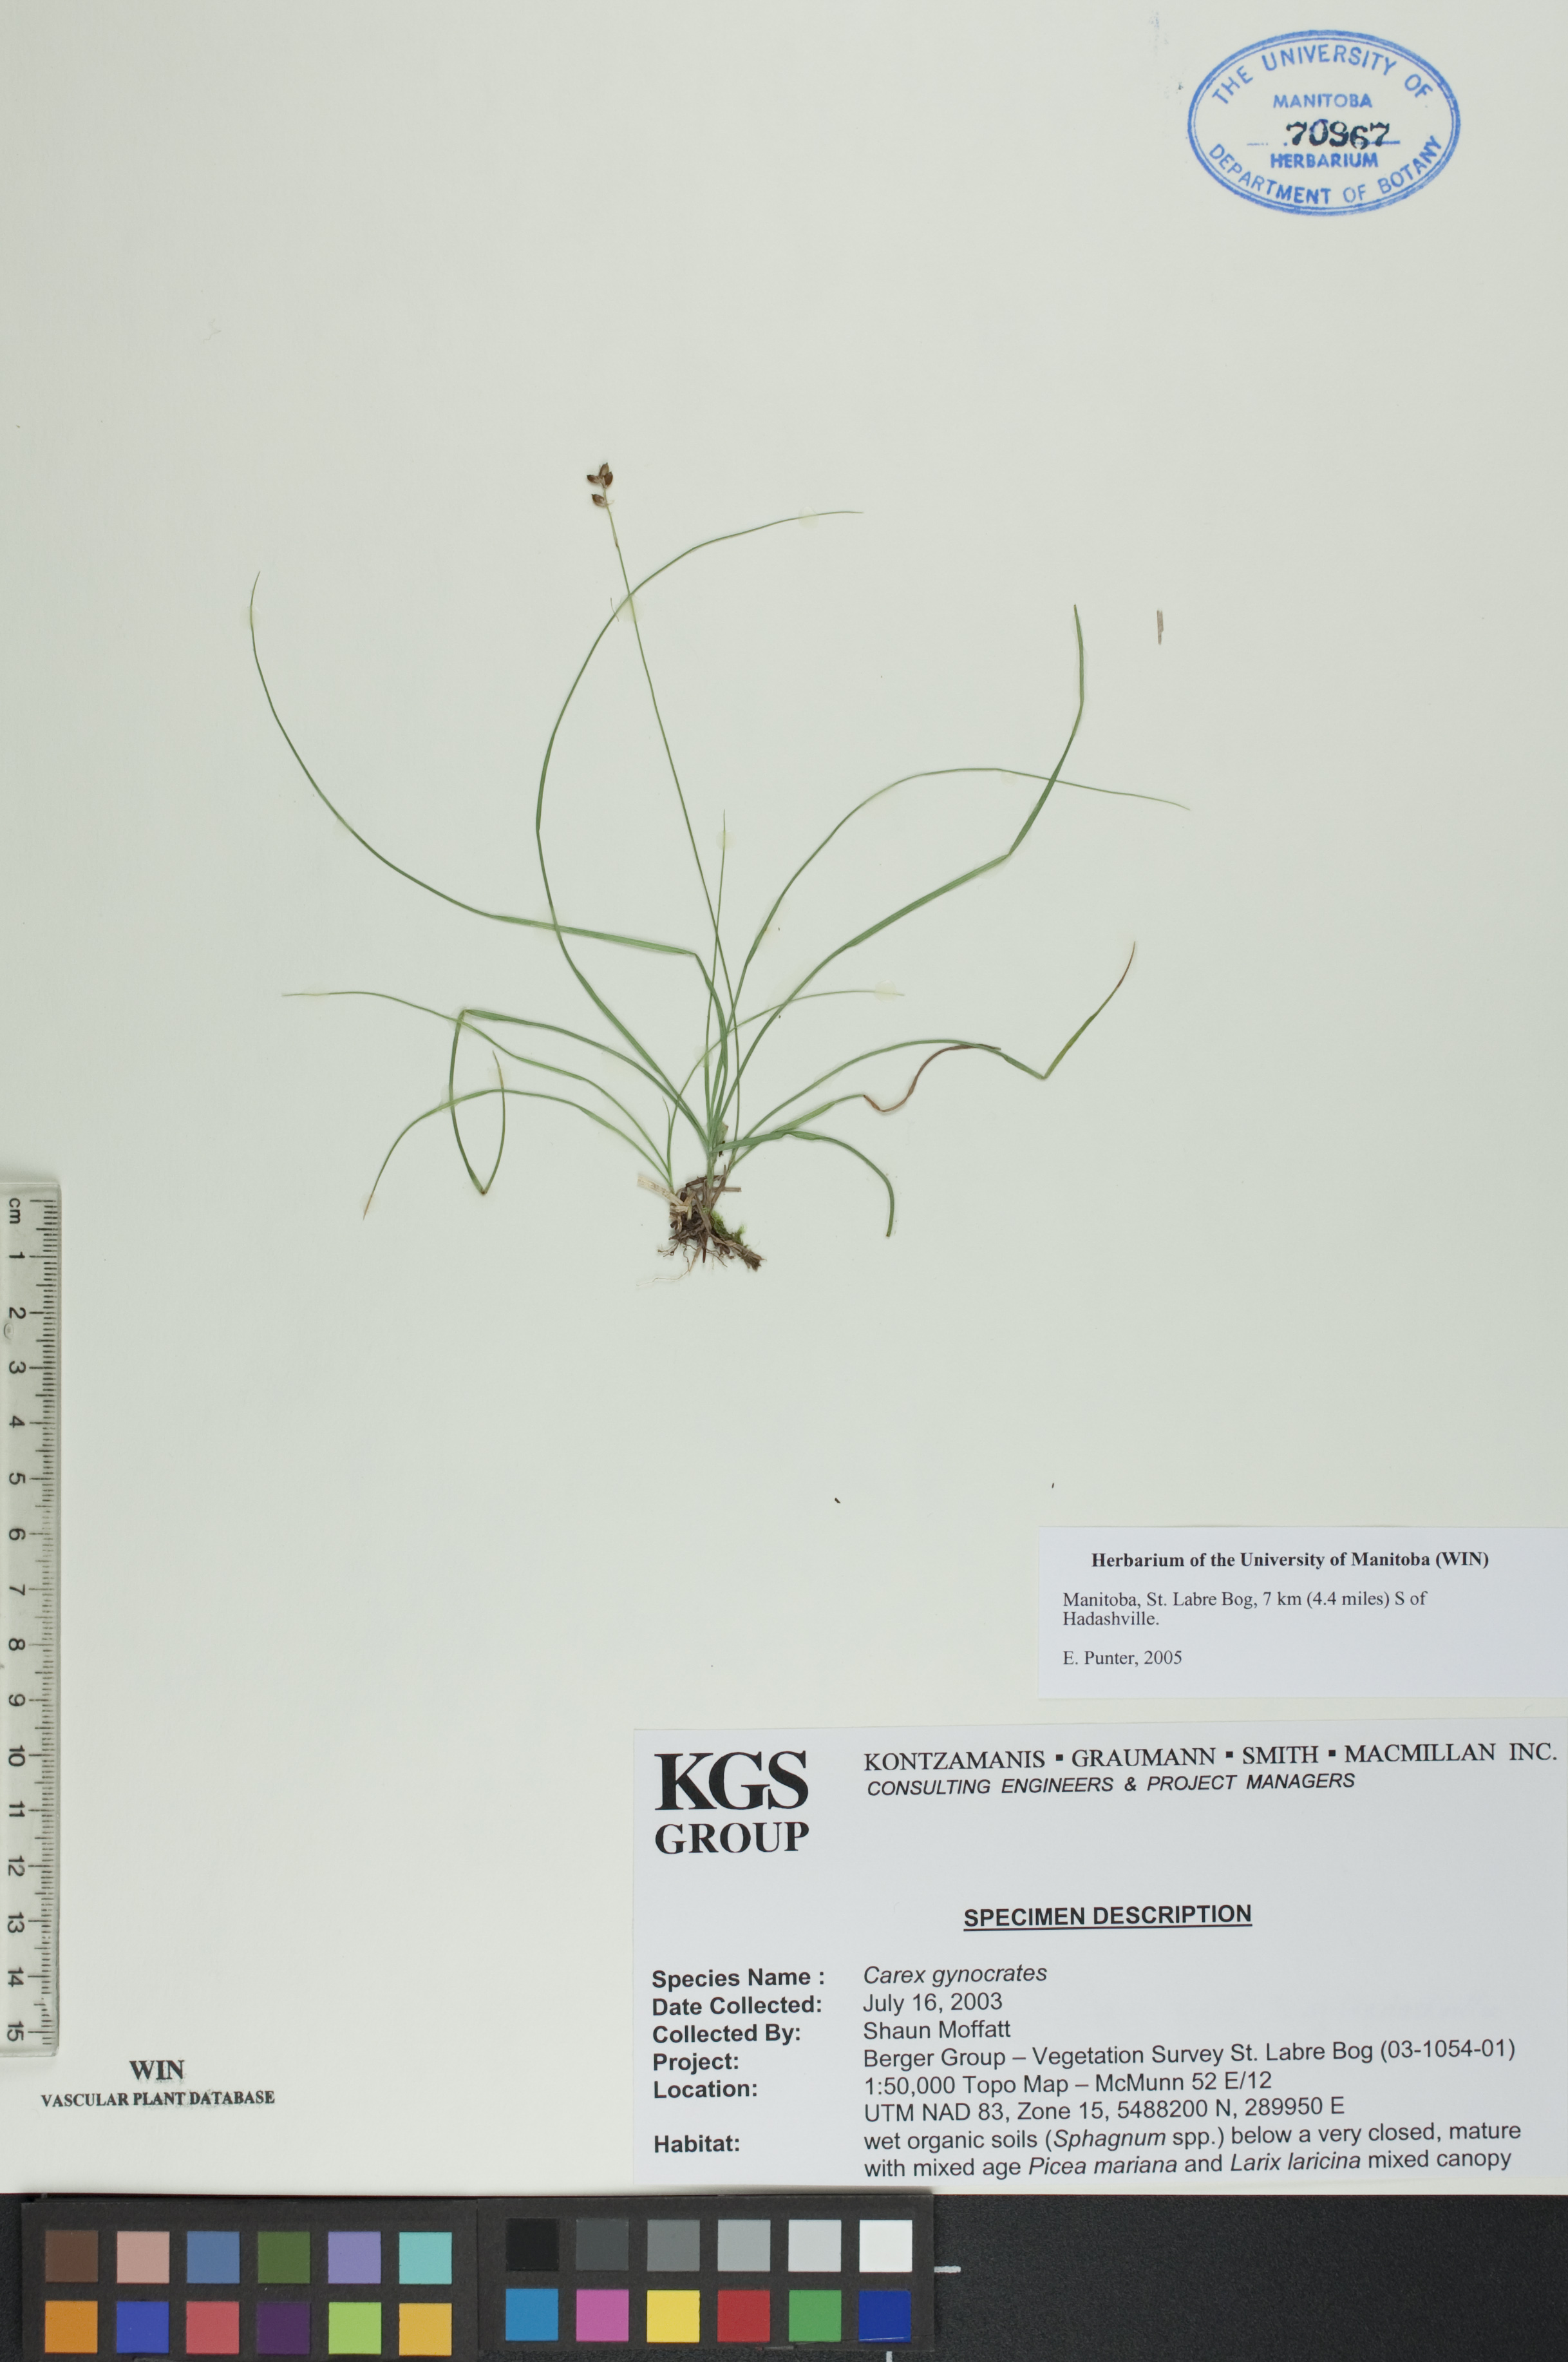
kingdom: Plantae
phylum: Tracheophyta
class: Liliopsida
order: Poales
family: Cyperaceae
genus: Carex
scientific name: Carex nardina
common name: Nard sedge
